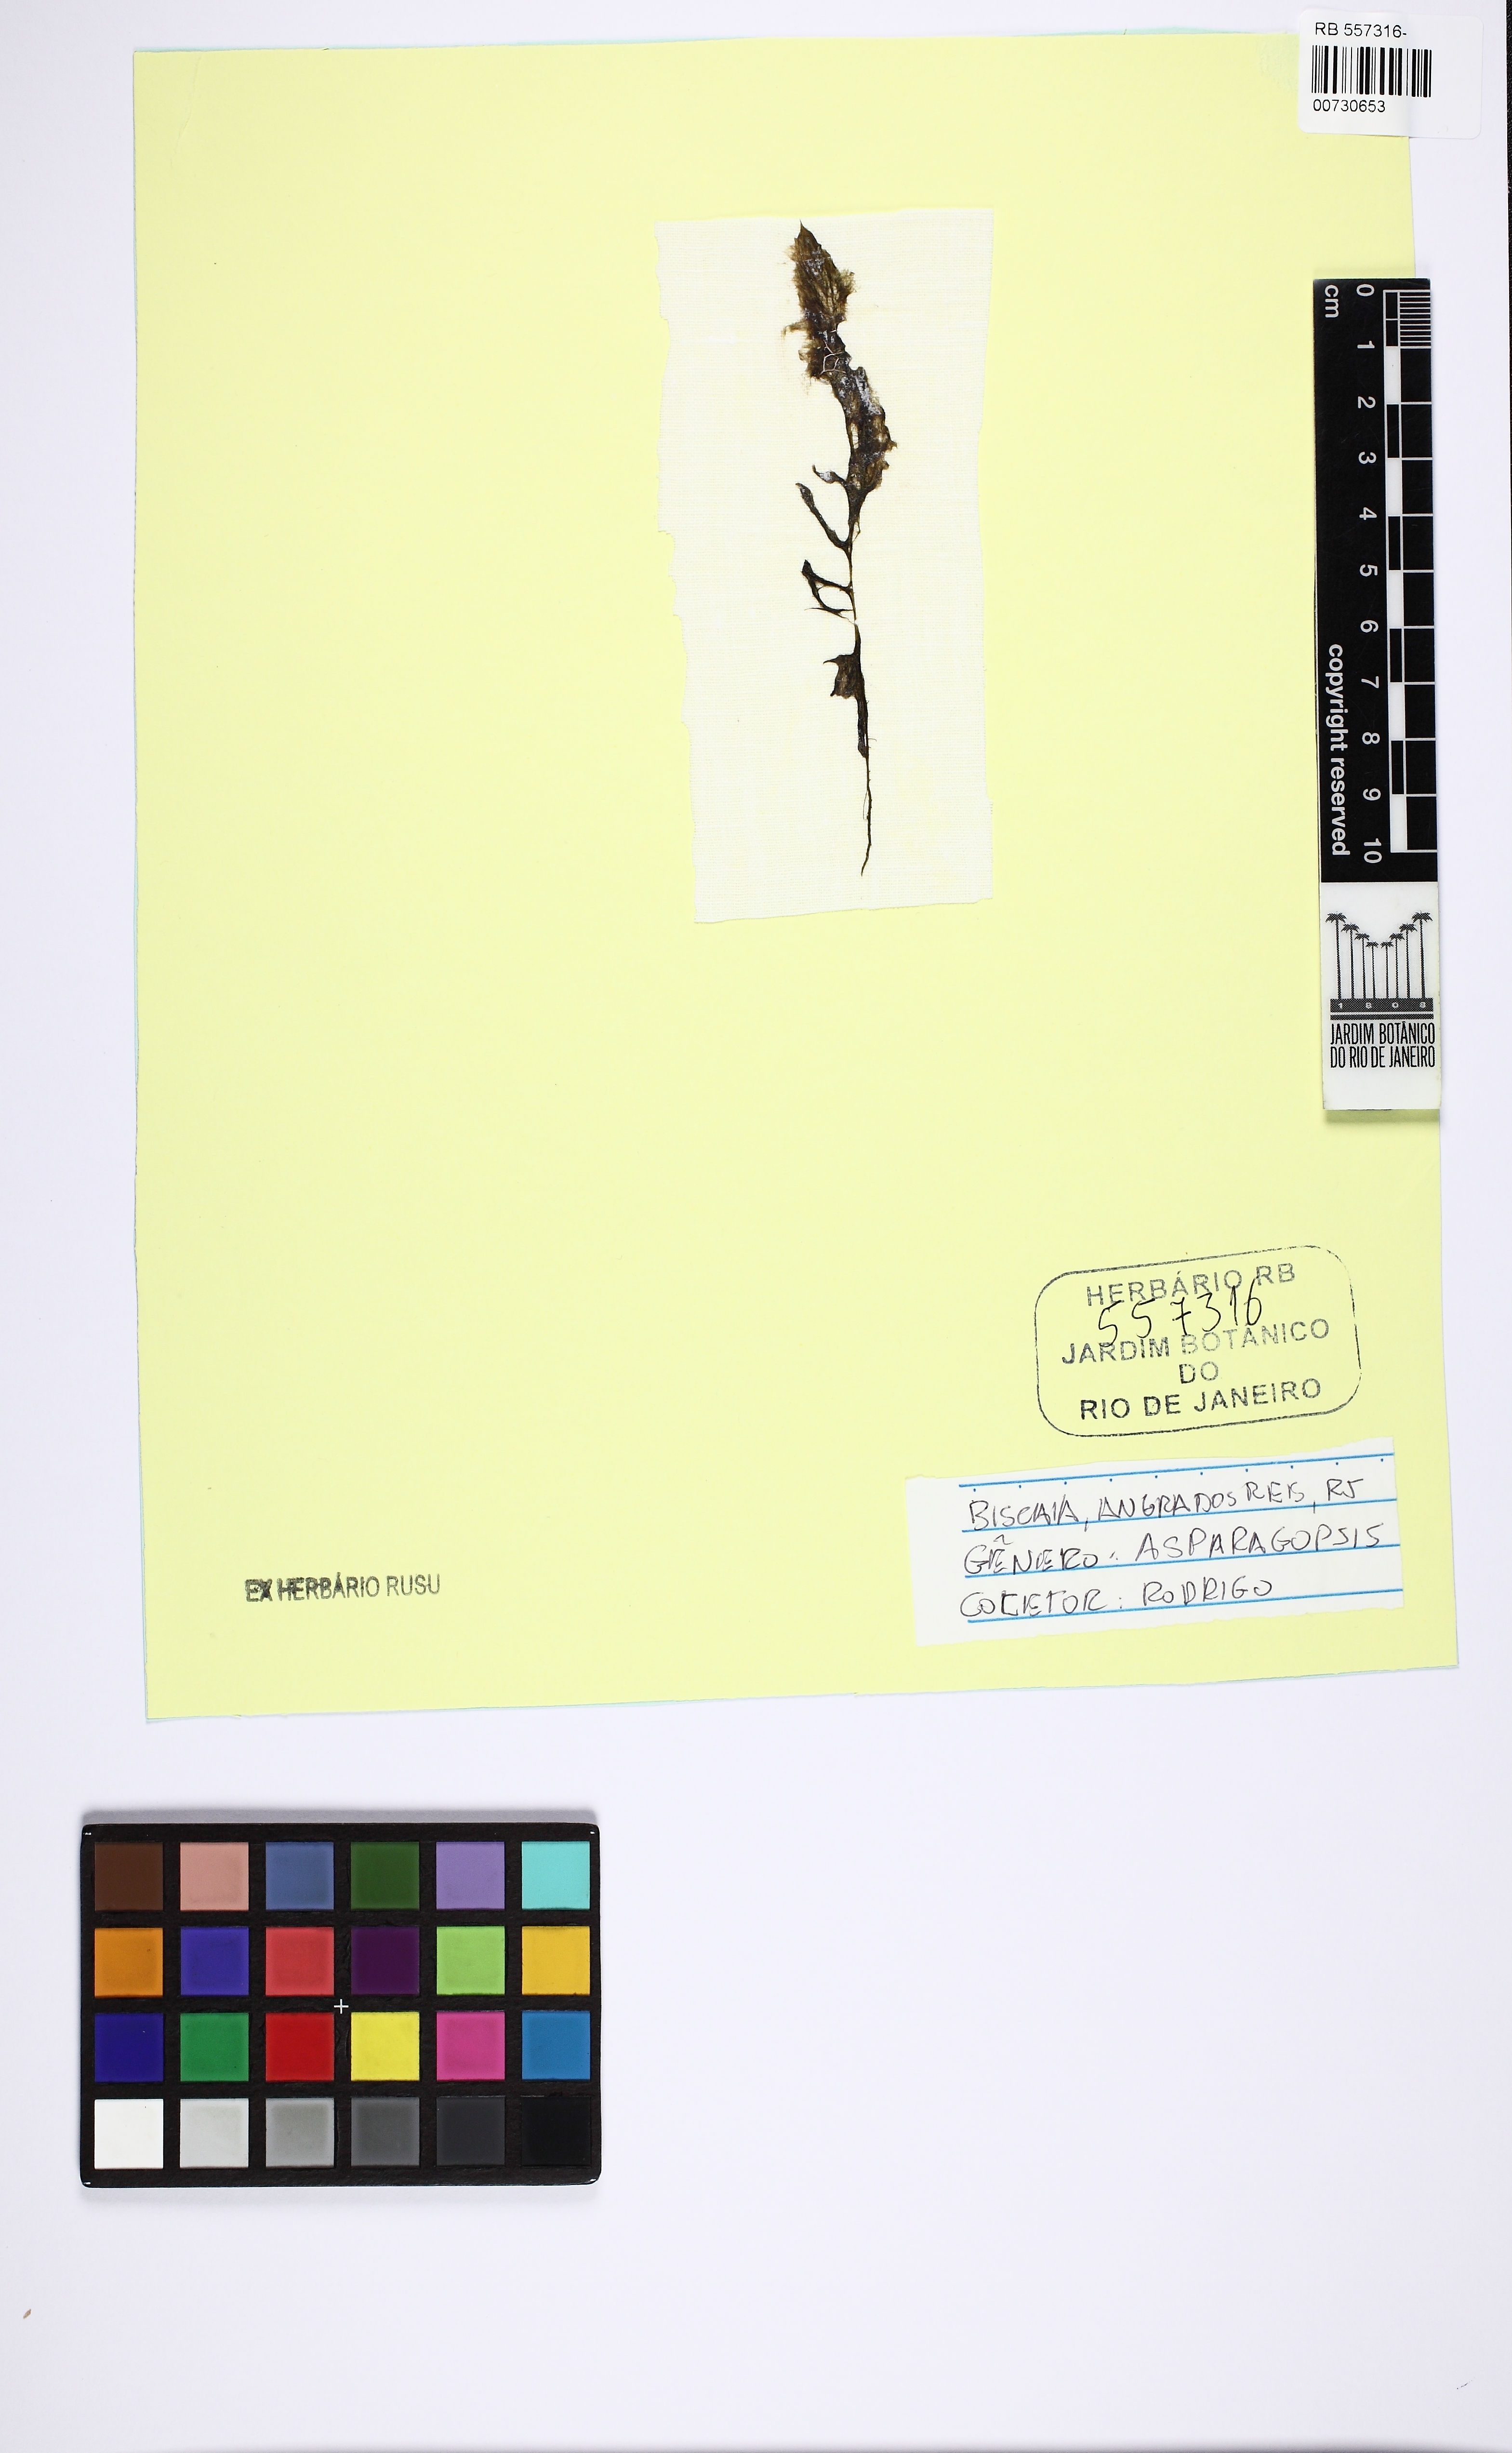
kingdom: Plantae
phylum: Rhodophyta
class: Florideophyceae
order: Bonnemaisoniales
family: Bonnemaisoniaceae
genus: Asparagopsis
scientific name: Asparagopsis
